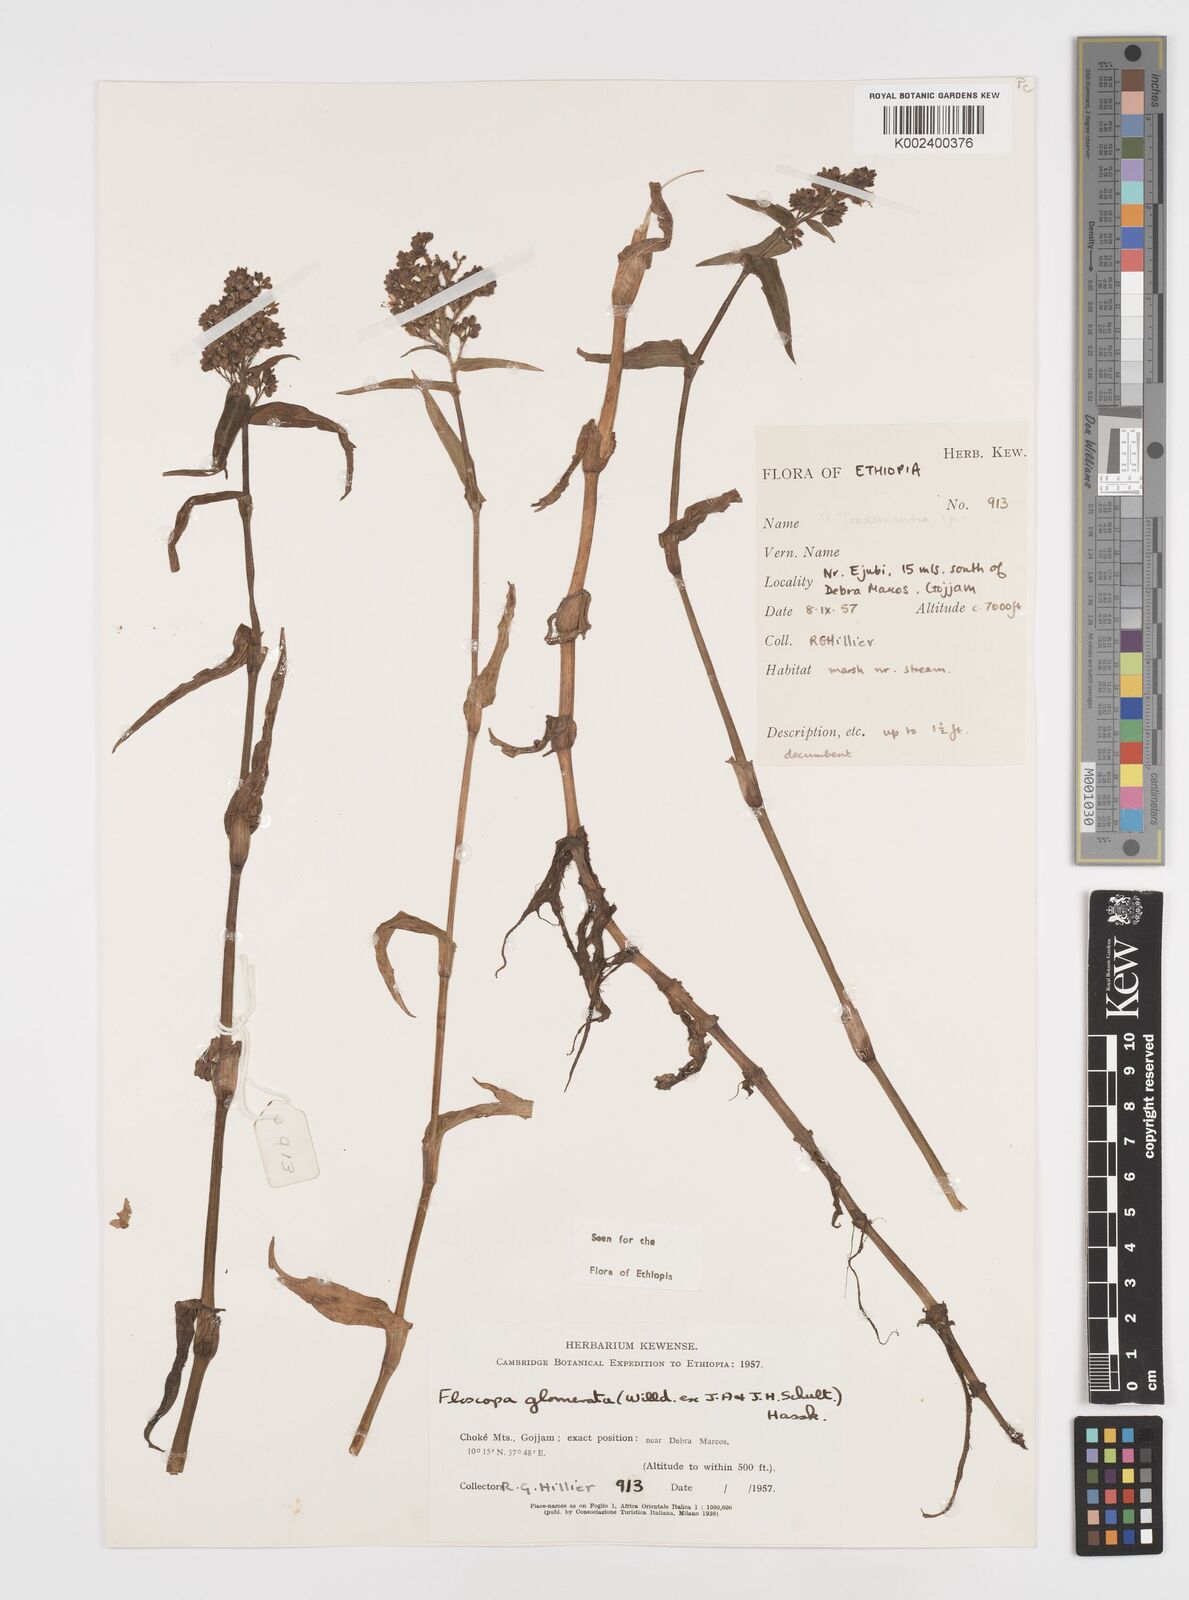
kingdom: Plantae
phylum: Tracheophyta
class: Liliopsida
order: Commelinales
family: Commelinaceae
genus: Floscopa
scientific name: Floscopa glomerata
